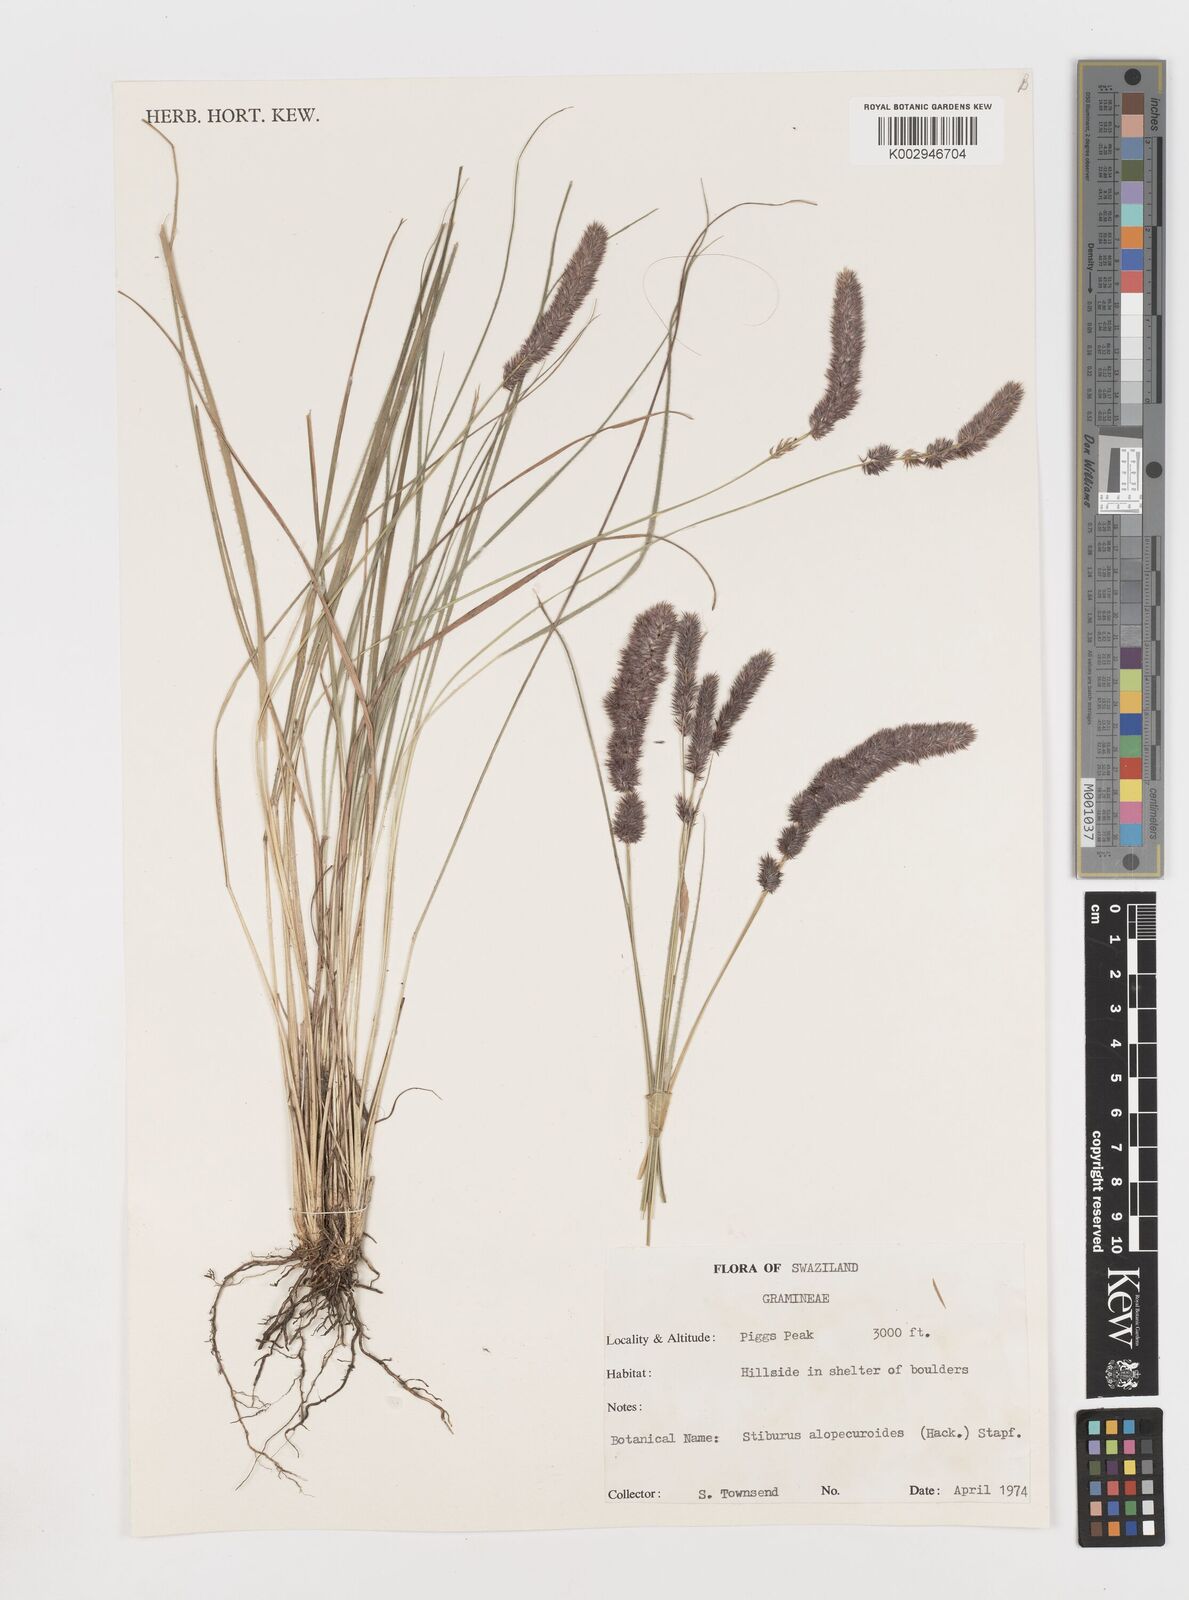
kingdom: Plantae
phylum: Tracheophyta
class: Liliopsida
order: Poales
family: Poaceae
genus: Stiburus
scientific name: Stiburus alopecuroides
